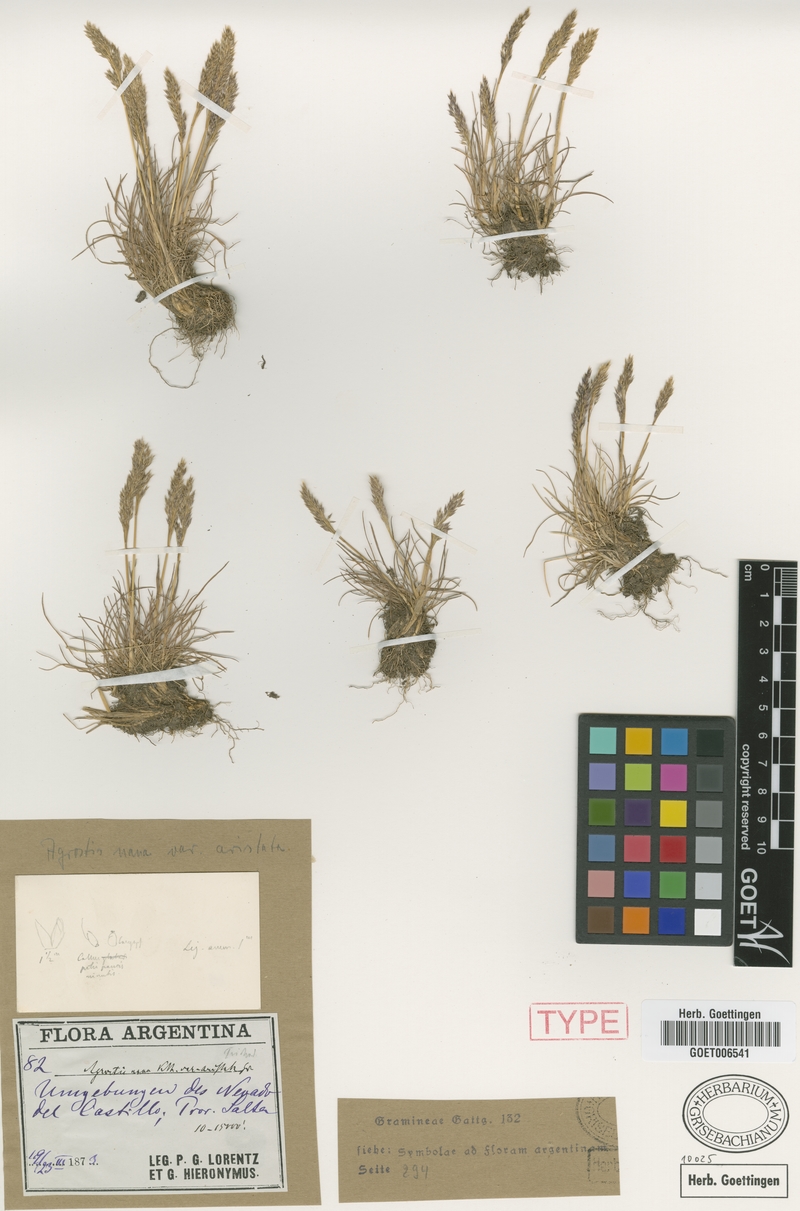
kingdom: Plantae
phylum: Tracheophyta
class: Liliopsida
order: Poales
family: Poaceae
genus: Agrostis
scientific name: Agrostis tolucensis
